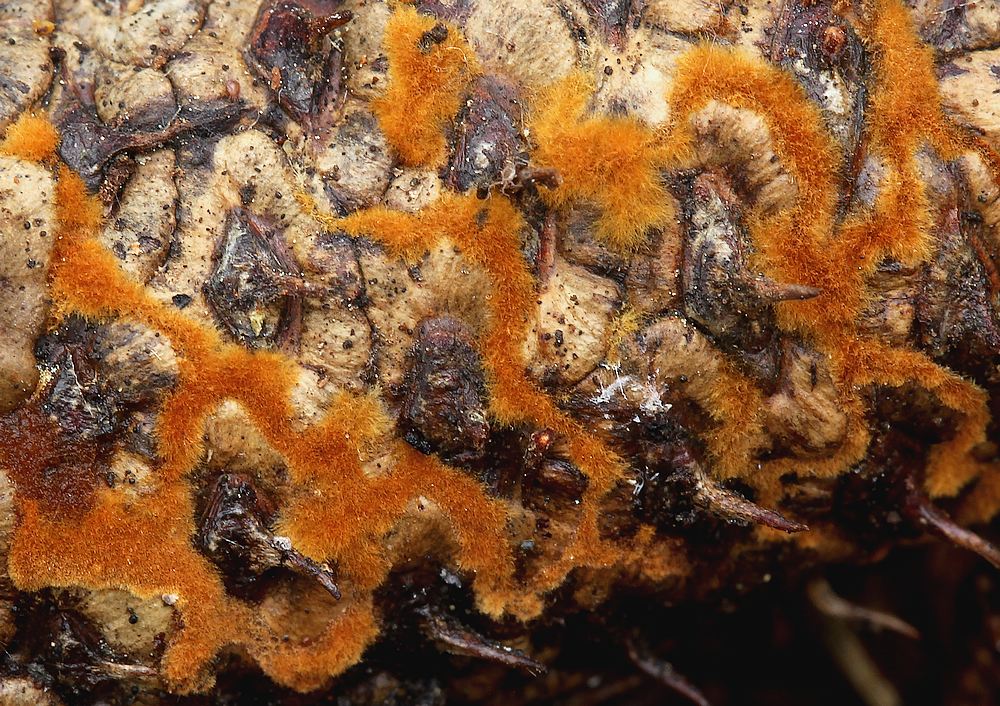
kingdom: Fungi
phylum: Basidiomycota
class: Agaricomycetes
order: Agaricales
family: Psathyrellaceae
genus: Ozonium
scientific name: Ozonium
